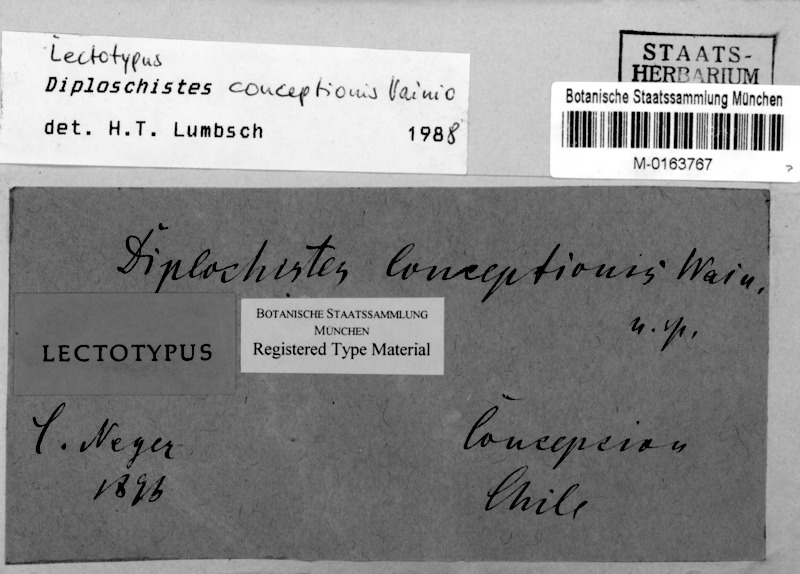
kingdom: Fungi
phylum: Ascomycota
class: Lecanoromycetes
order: Ostropales
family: Graphidaceae
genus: Diploschistes
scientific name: Diploschistes conceptionis
